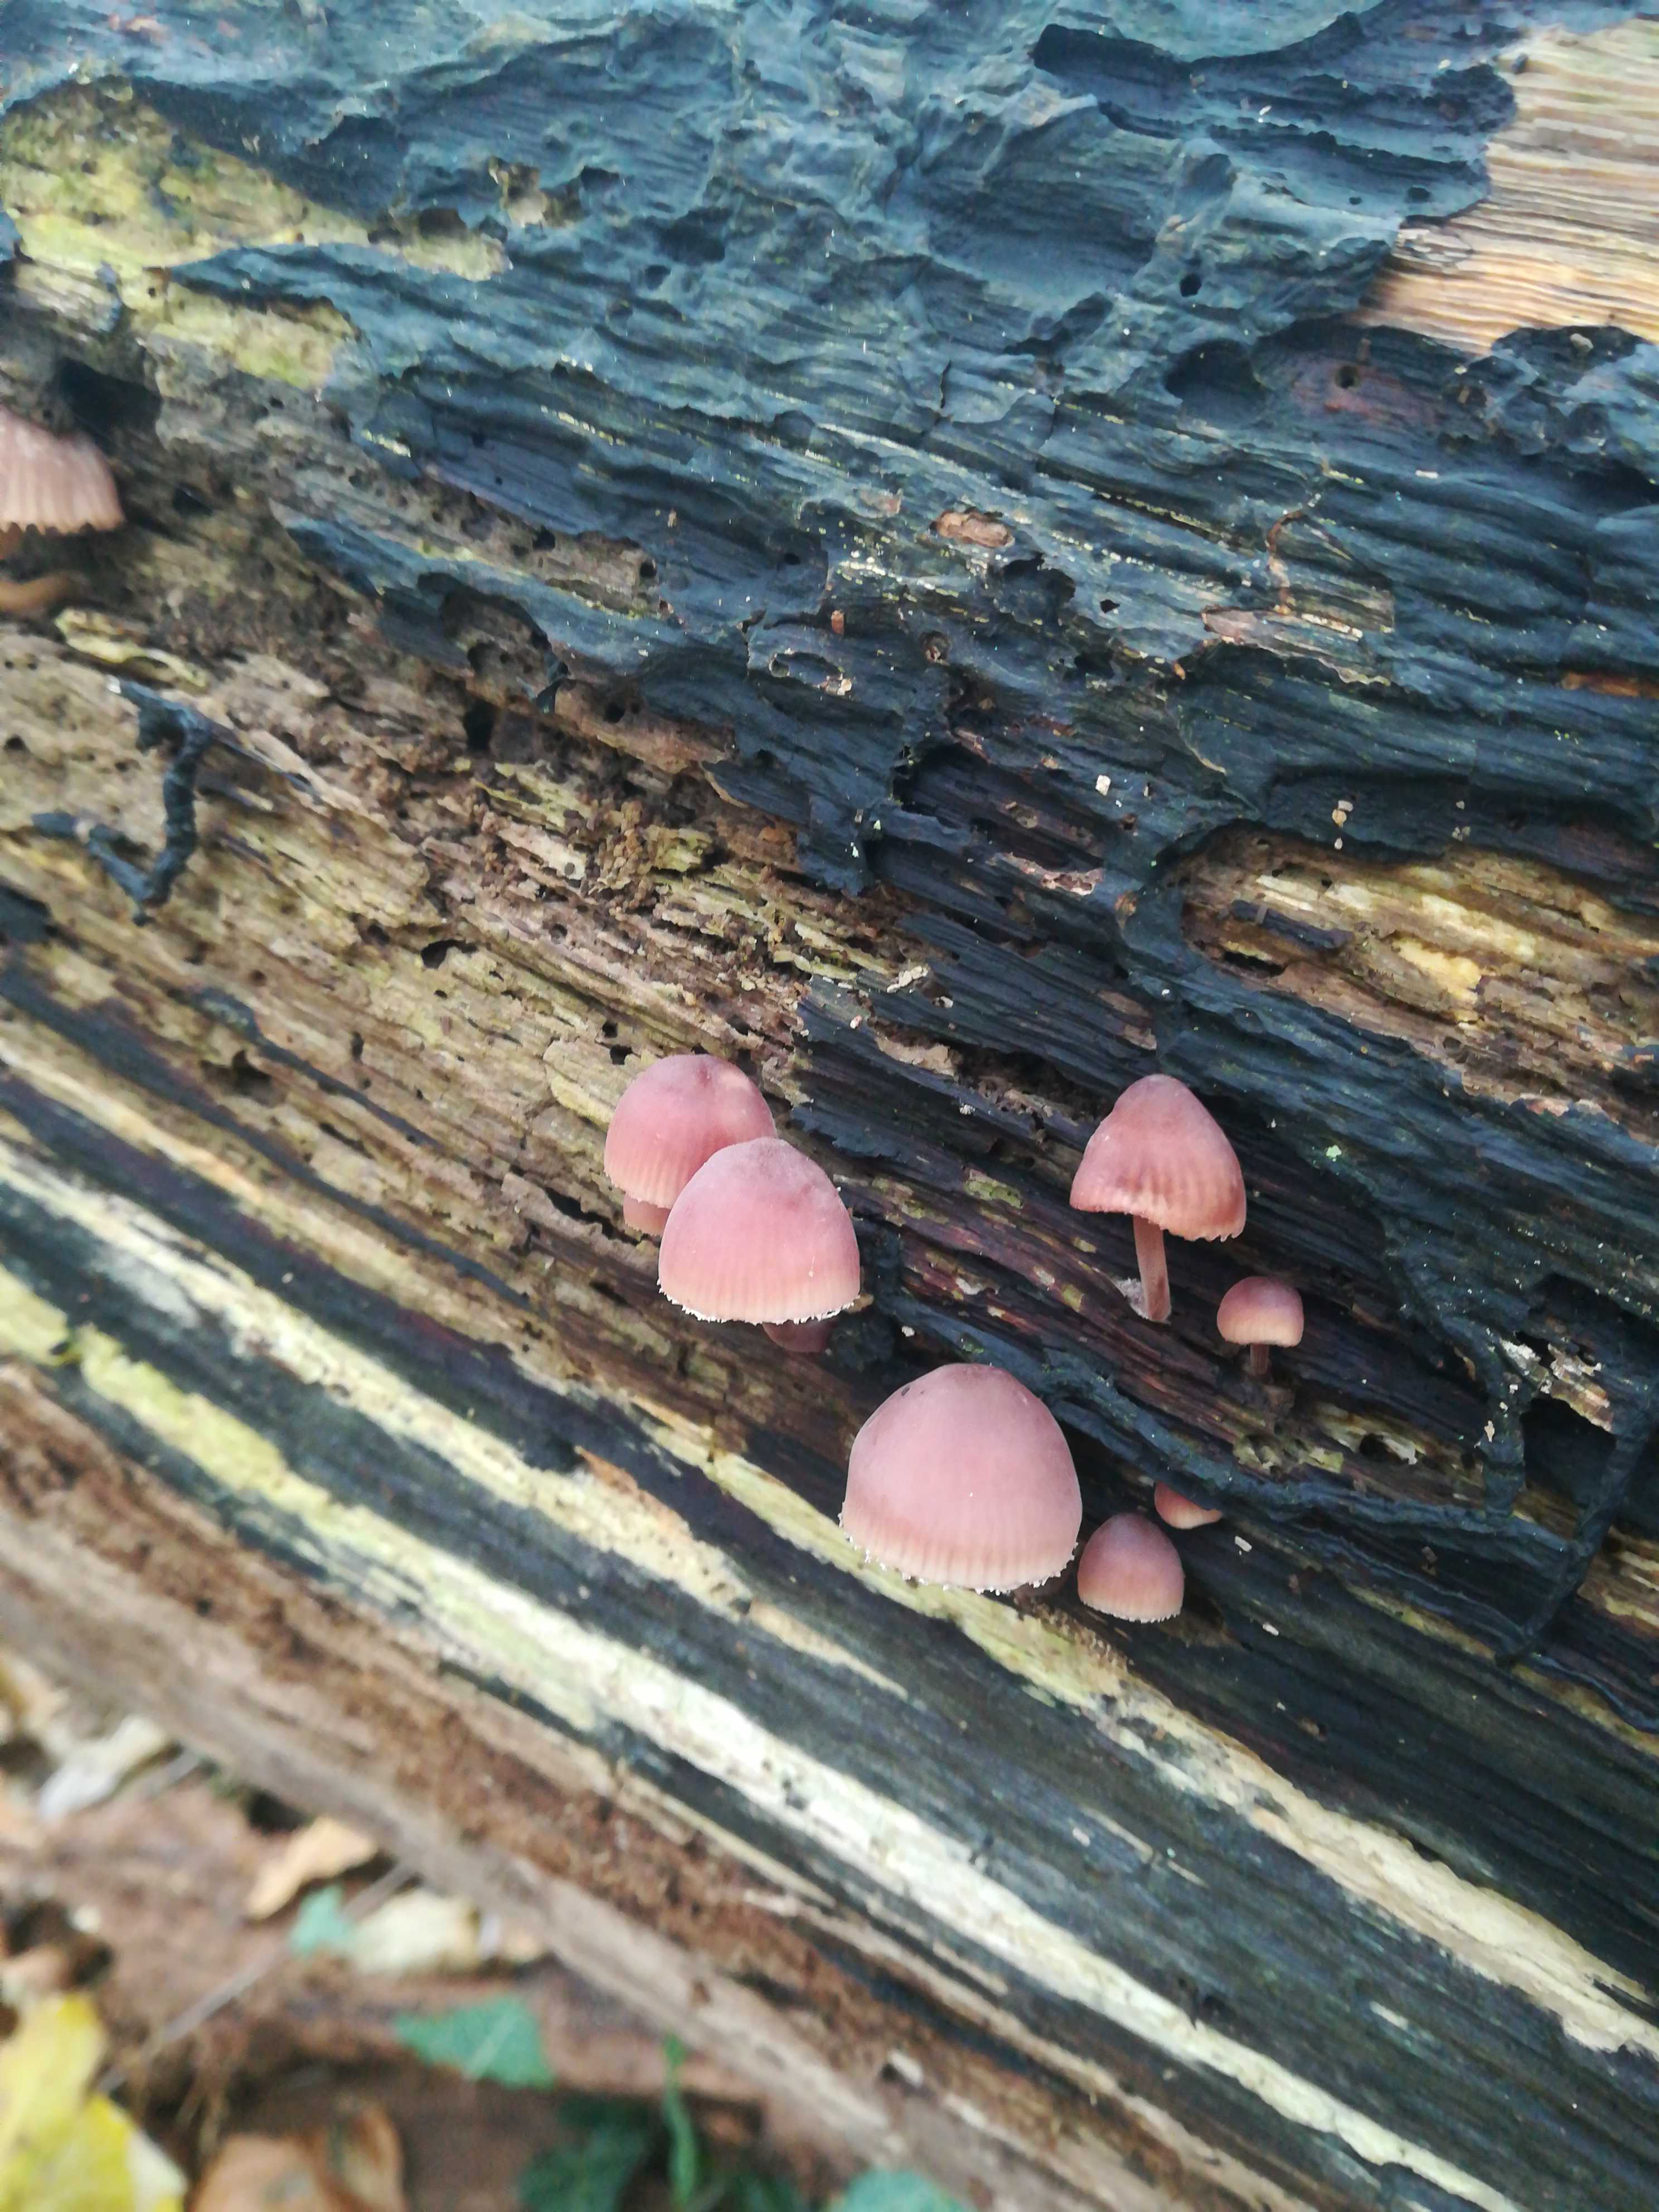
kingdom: Fungi
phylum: Basidiomycota
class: Agaricomycetes
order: Agaricales
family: Mycenaceae
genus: Mycena
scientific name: Mycena haematopus
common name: blødende huesvamp
